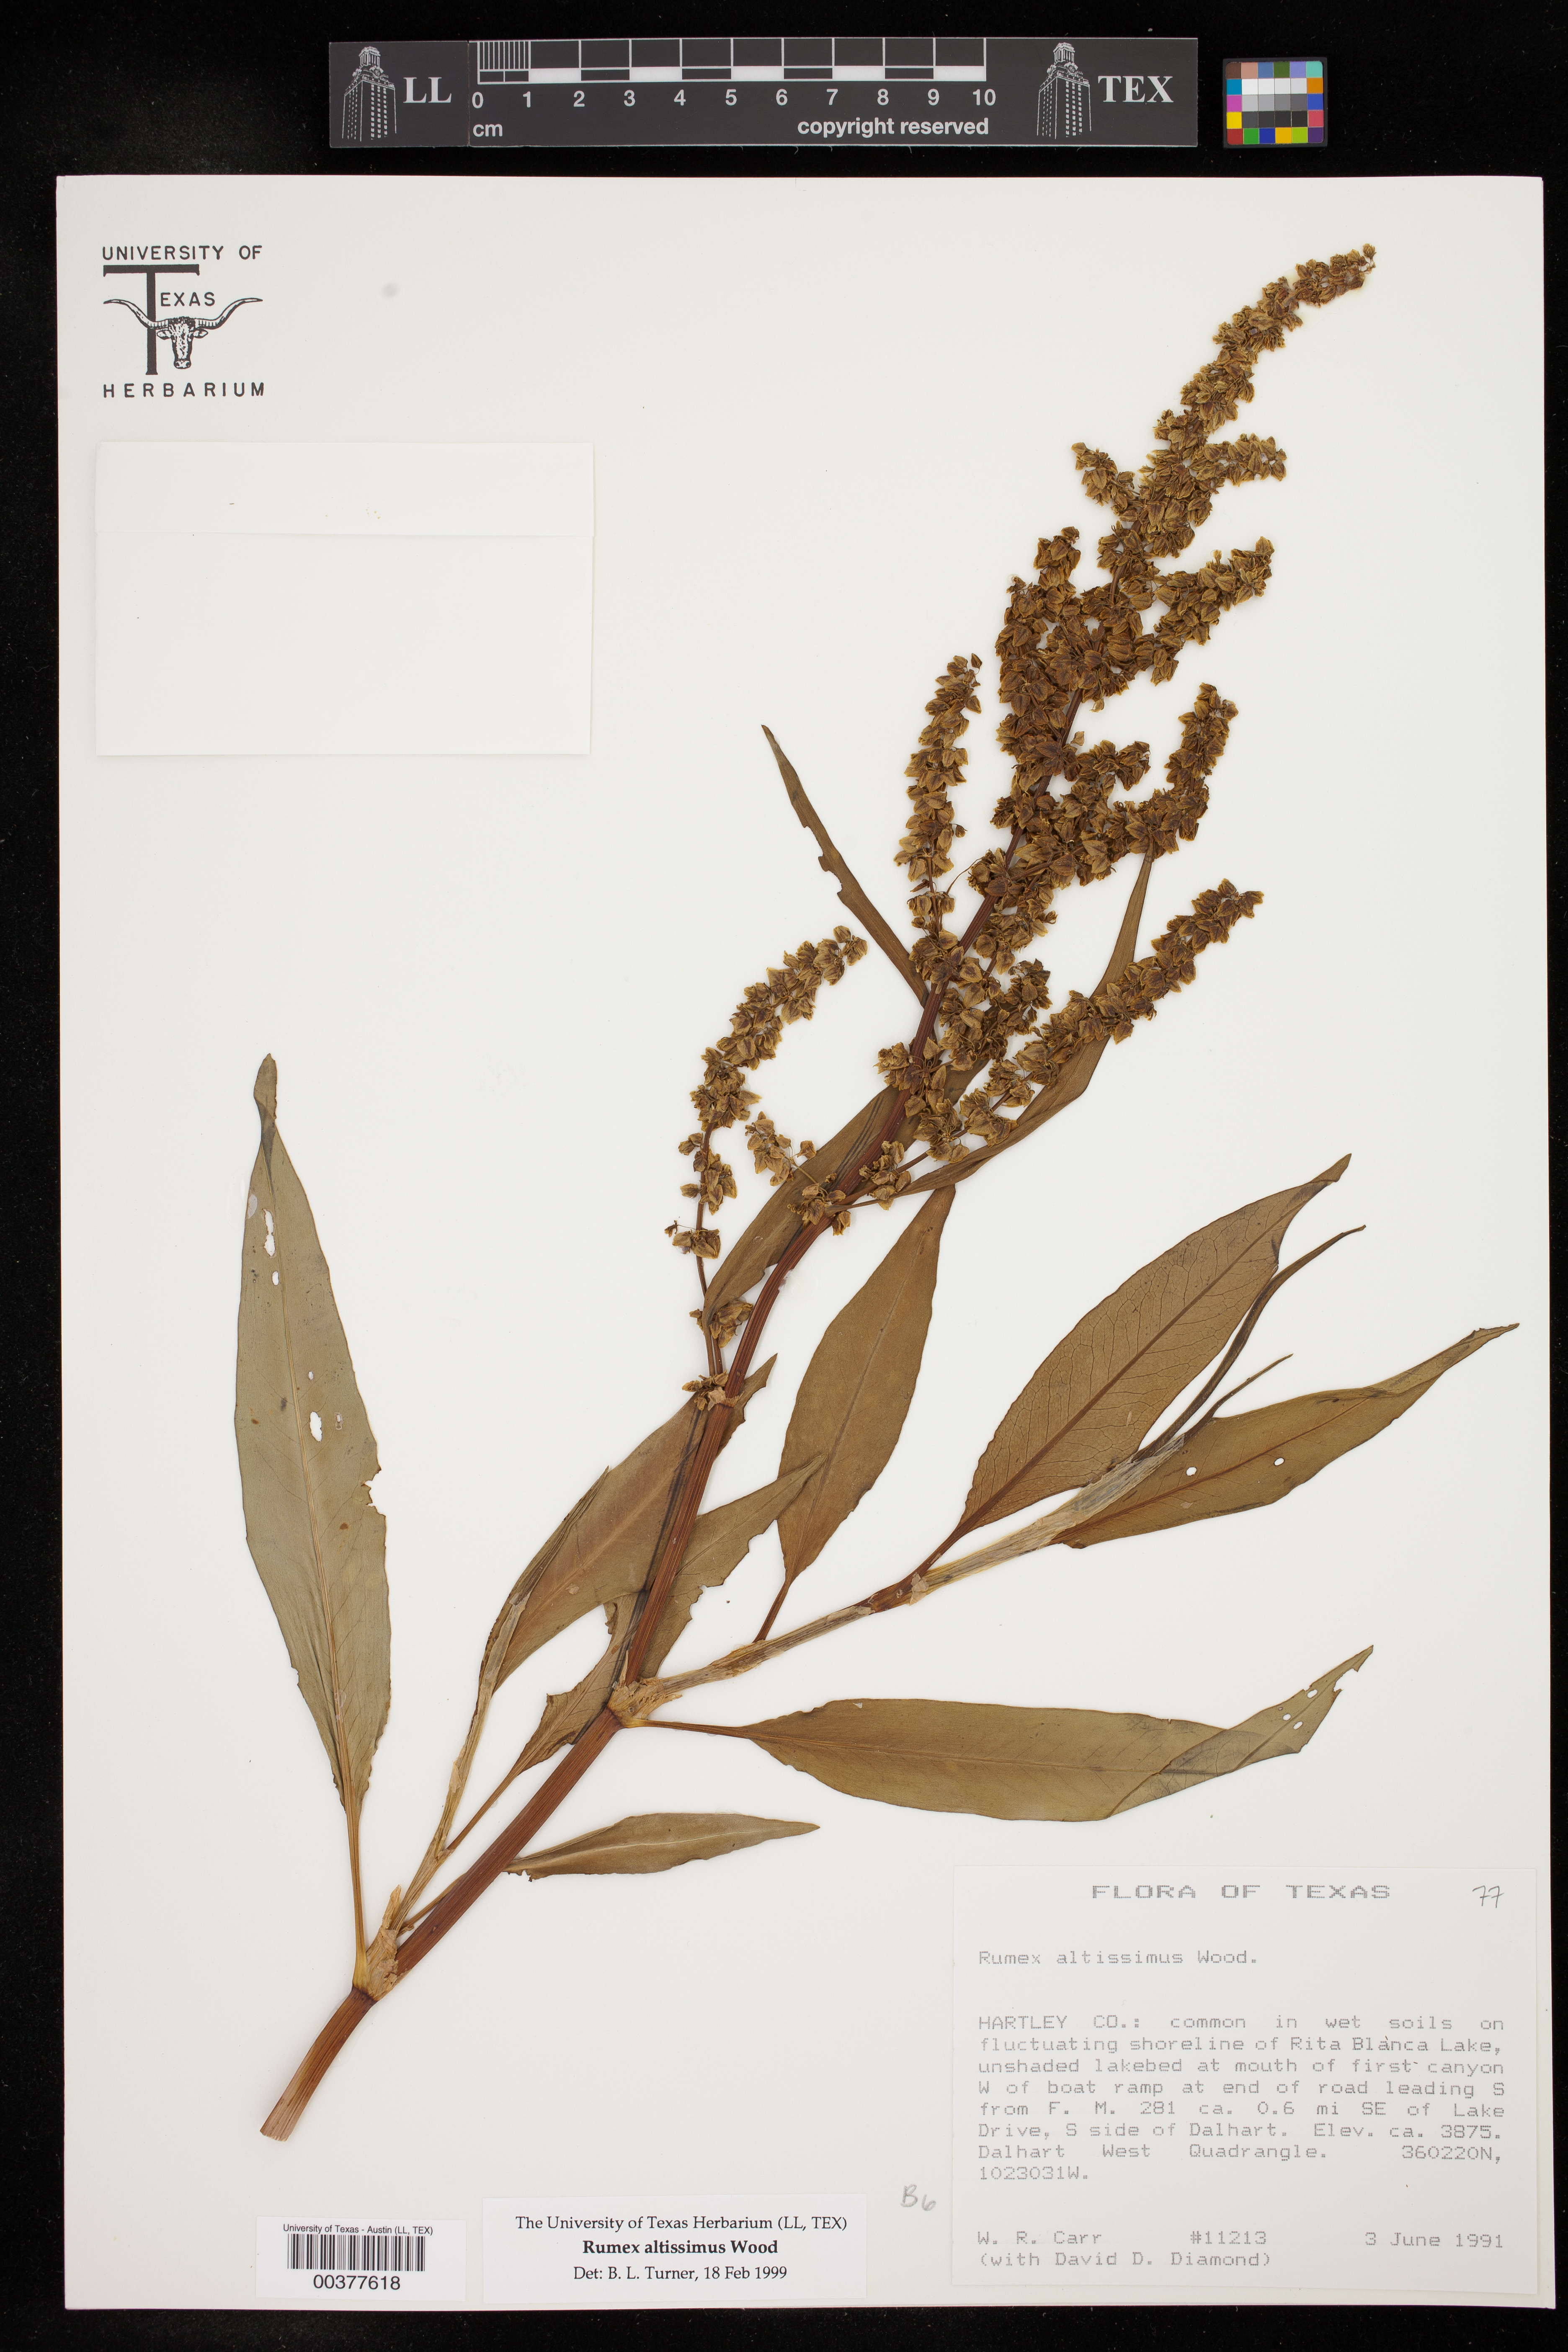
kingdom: Plantae
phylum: Tracheophyta
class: Magnoliopsida
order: Caryophyllales
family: Polygonaceae
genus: Rumex
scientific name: Rumex altissimus
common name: Smooth dock
